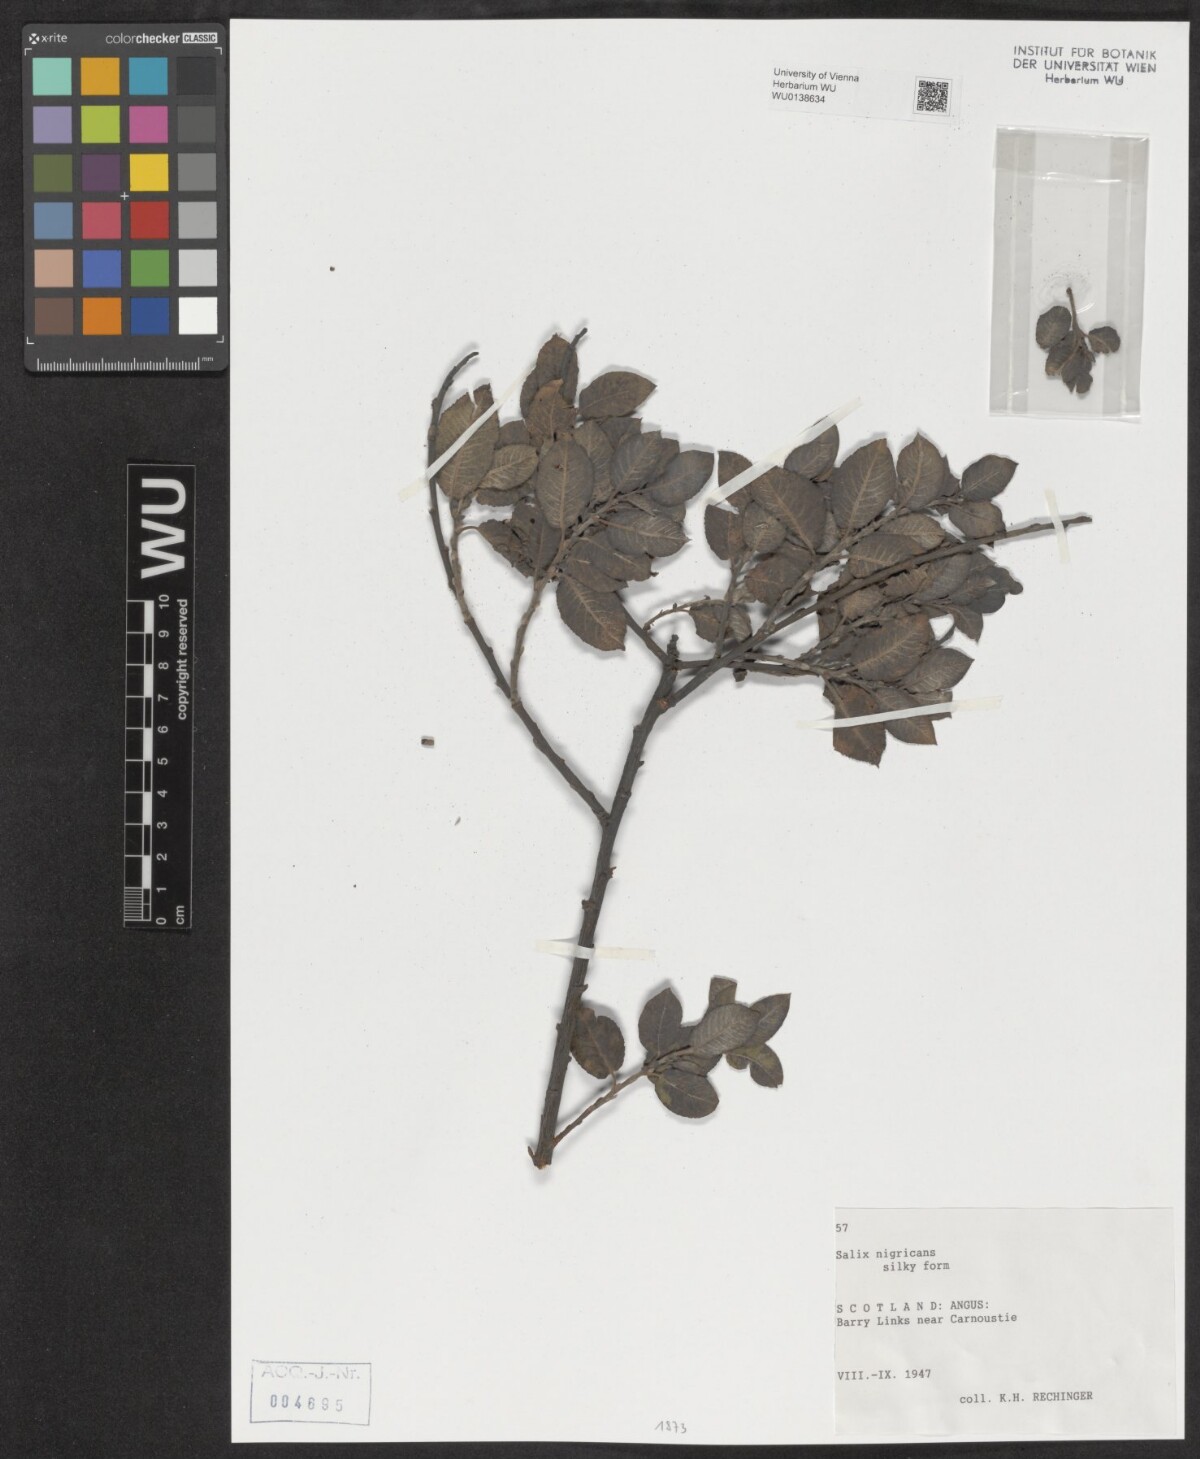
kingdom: Plantae
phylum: Tracheophyta
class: Magnoliopsida
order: Malpighiales
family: Salicaceae
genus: Salix
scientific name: Salix myrsinifolia
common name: Dark-leaved willow
